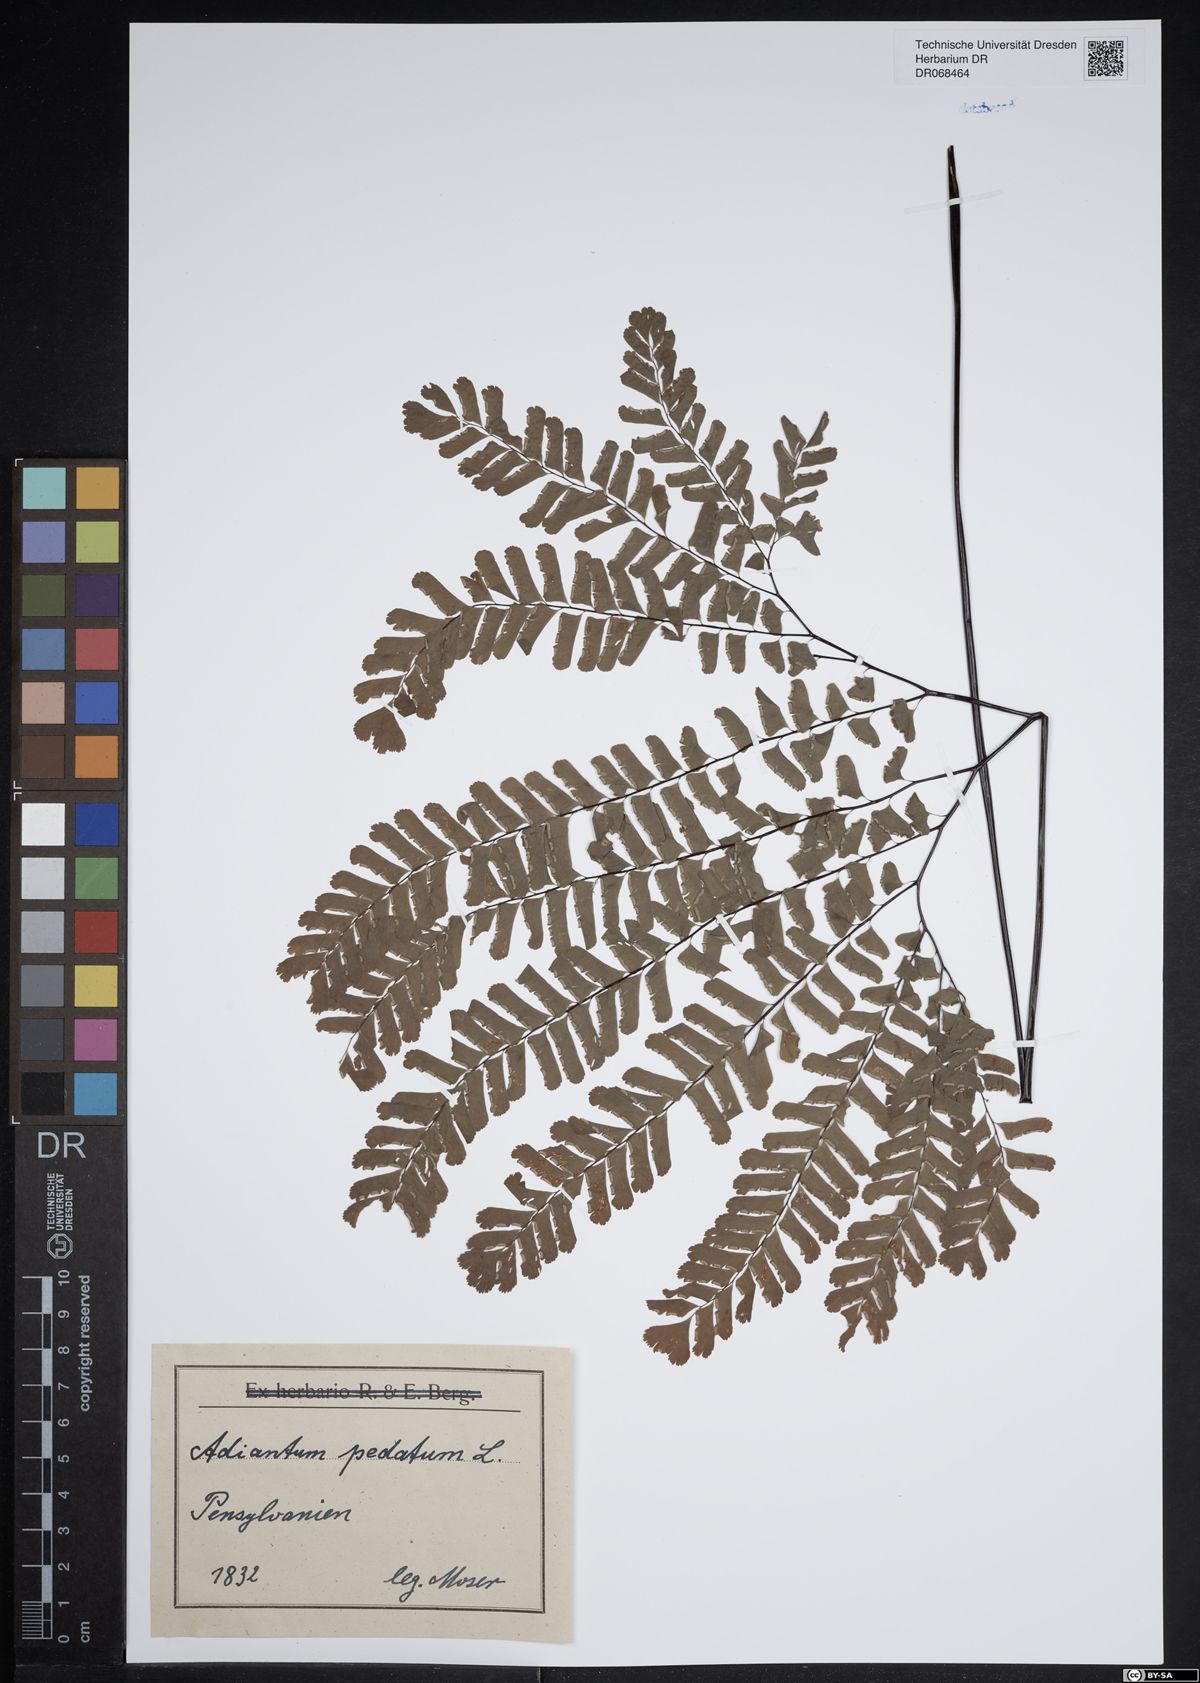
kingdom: Plantae
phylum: Tracheophyta
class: Polypodiopsida
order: Polypodiales
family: Pteridaceae
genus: Adiantum
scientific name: Adiantum pedatum
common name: Five-finger fern
